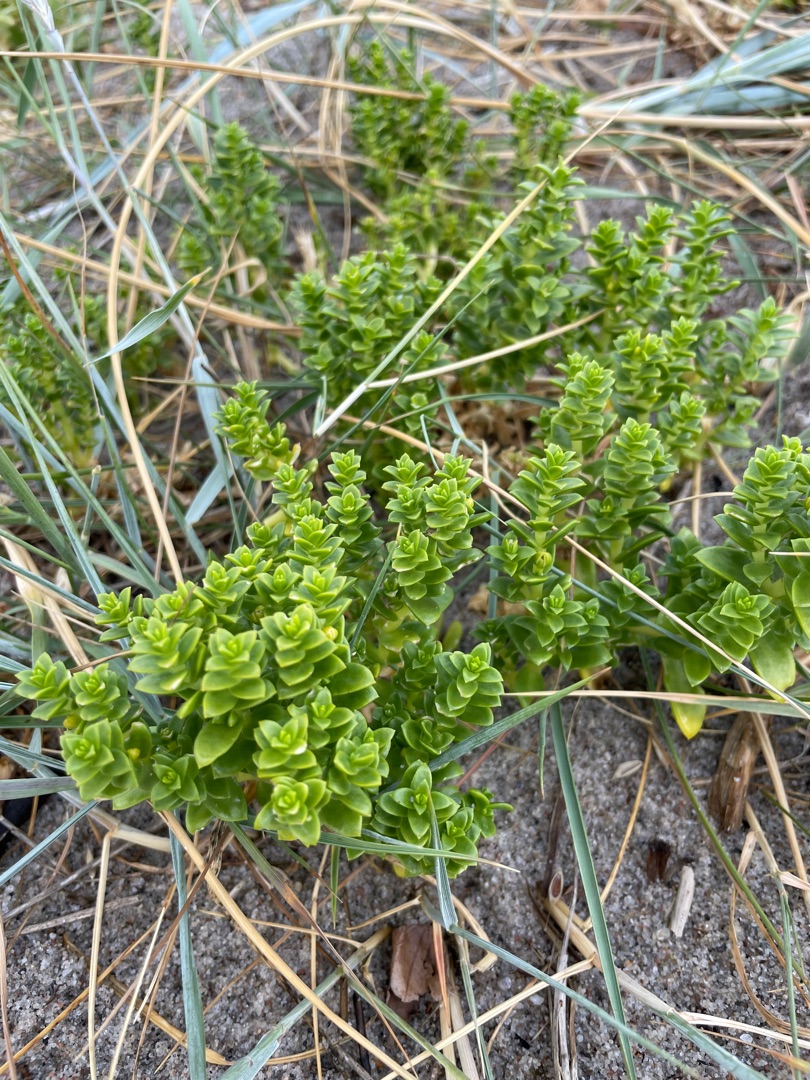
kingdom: Plantae
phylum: Tracheophyta
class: Magnoliopsida
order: Caryophyllales
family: Caryophyllaceae
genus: Honckenya
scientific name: Honckenya peploides
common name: Strandarve
